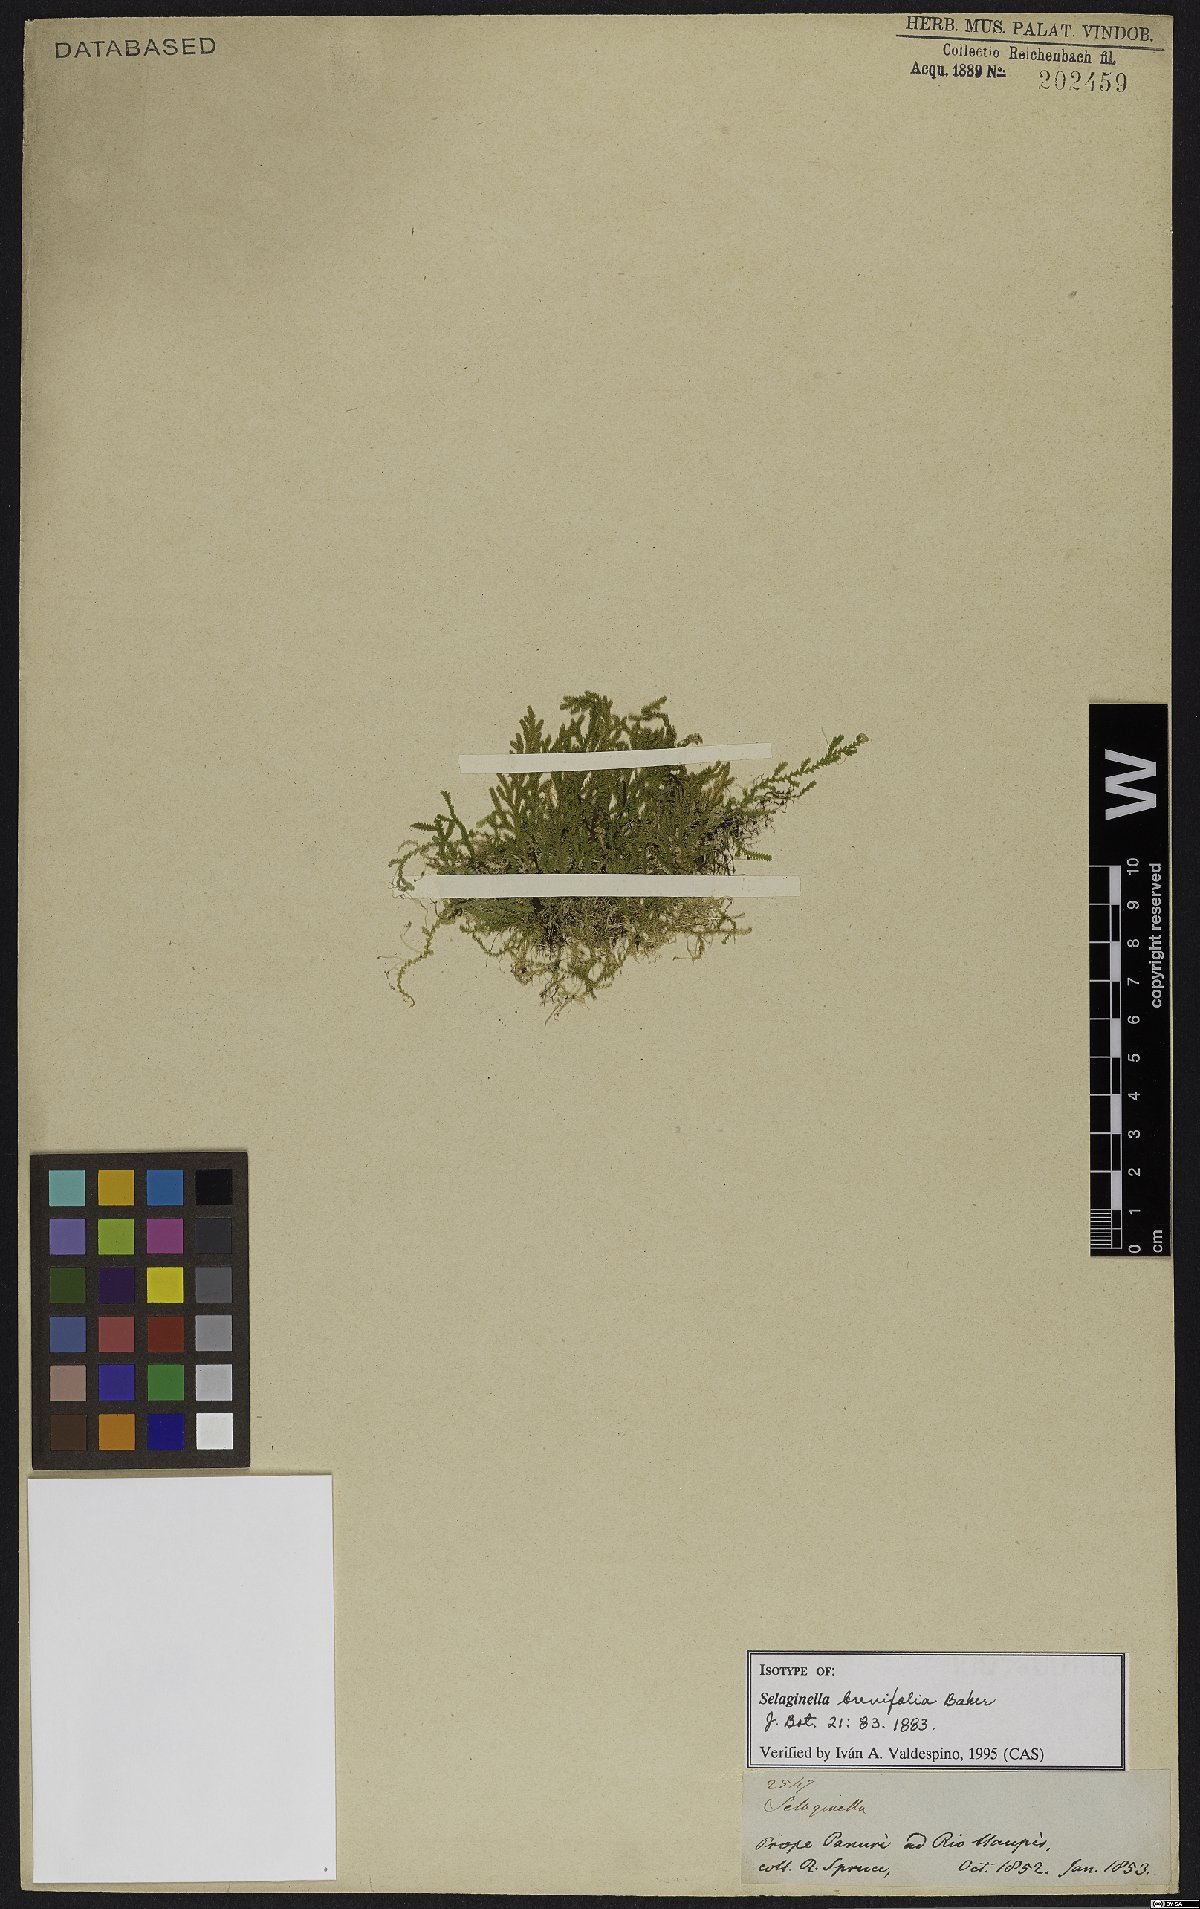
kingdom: Plantae
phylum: Tracheophyta
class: Lycopodiopsida
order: Selaginellales
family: Selaginellaceae
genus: Selaginella
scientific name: Selaginella brevifolia
